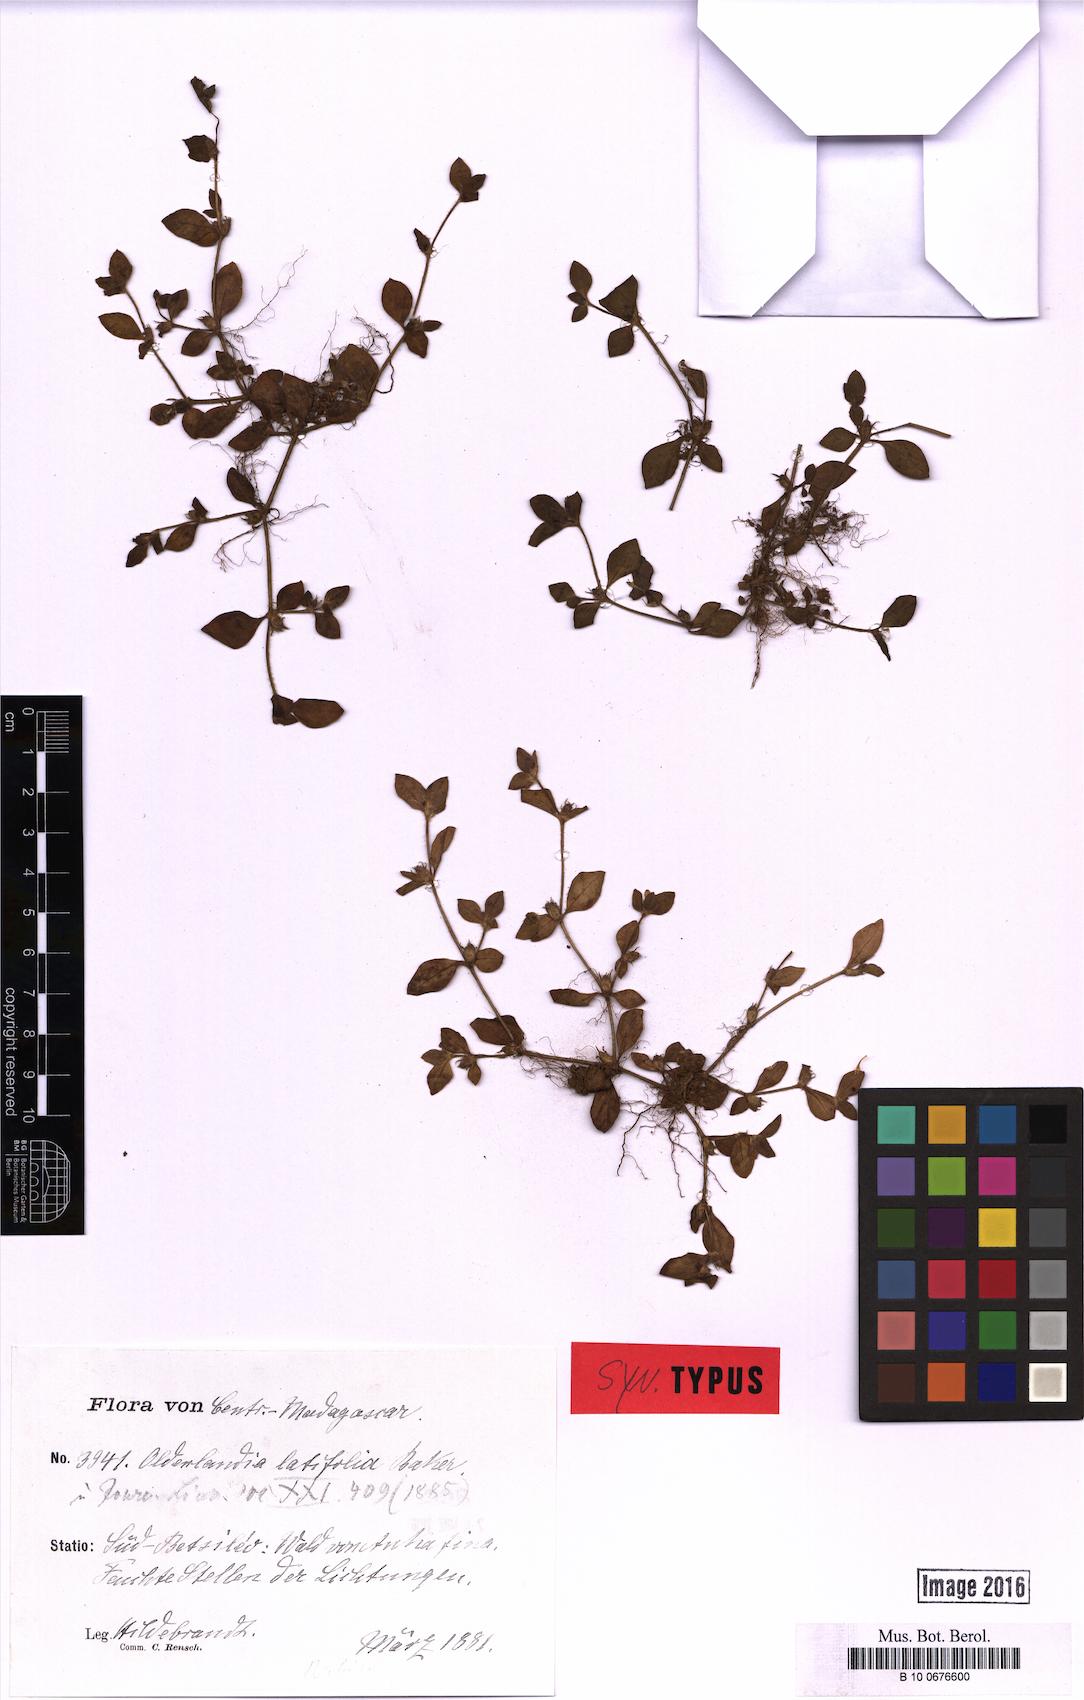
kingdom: Plantae
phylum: Tracheophyta
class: Magnoliopsida
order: Gentianales
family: Rubiaceae
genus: Oldenlandia
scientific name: Oldenlandia latifolia
